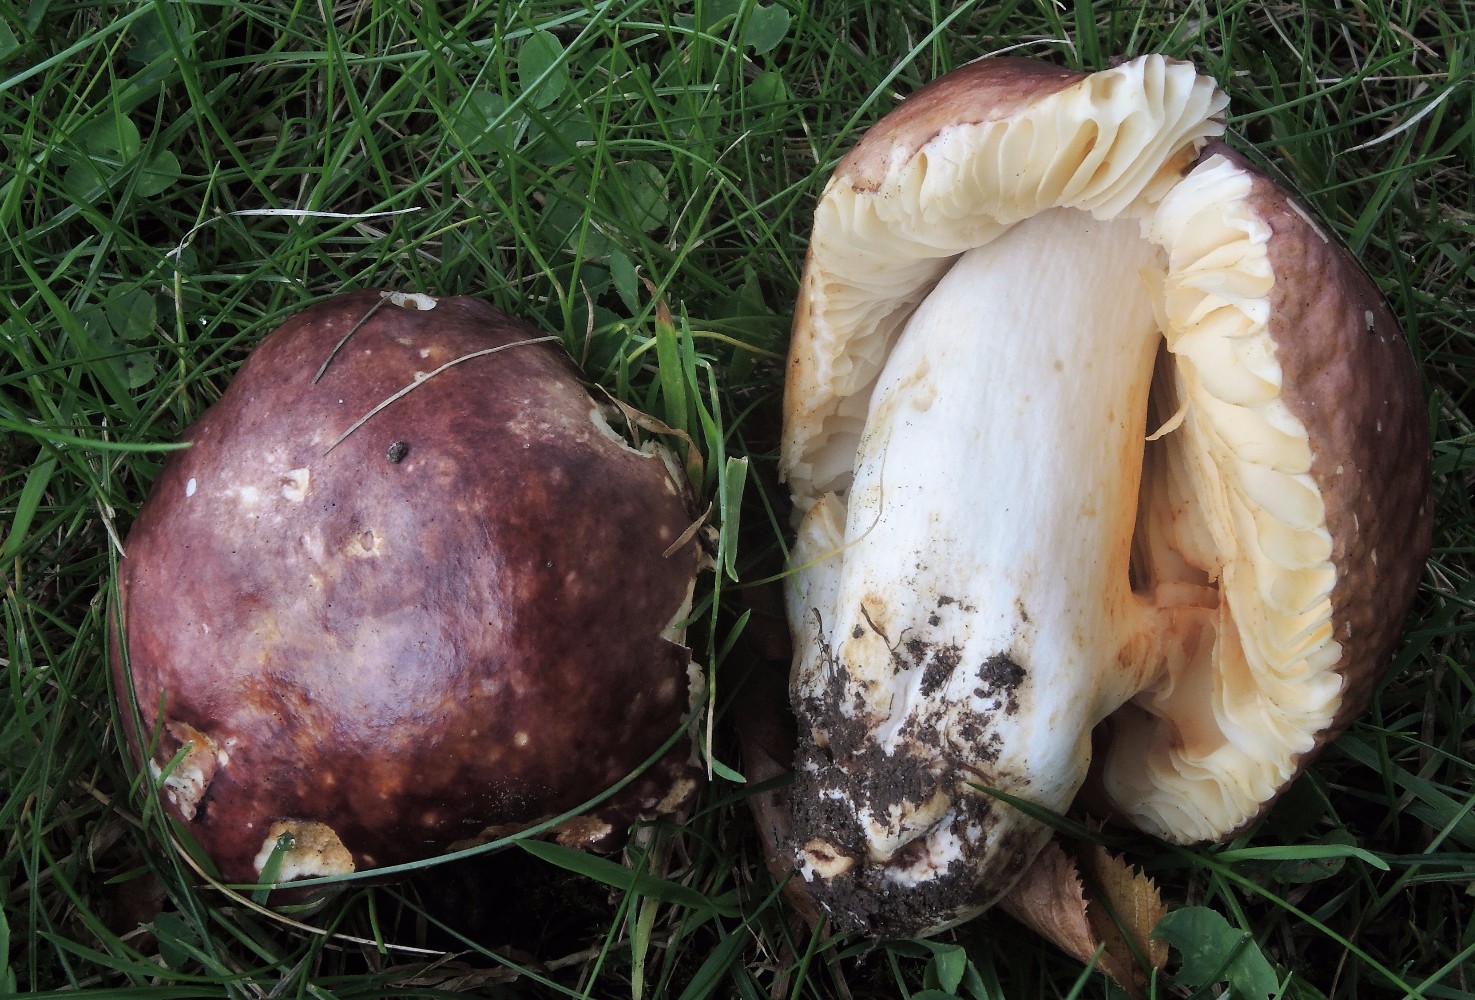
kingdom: Fungi
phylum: Basidiomycota
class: Agaricomycetes
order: Russulales
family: Russulaceae
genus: Russula
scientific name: Russula carpini
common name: avnbøg-skørhat
